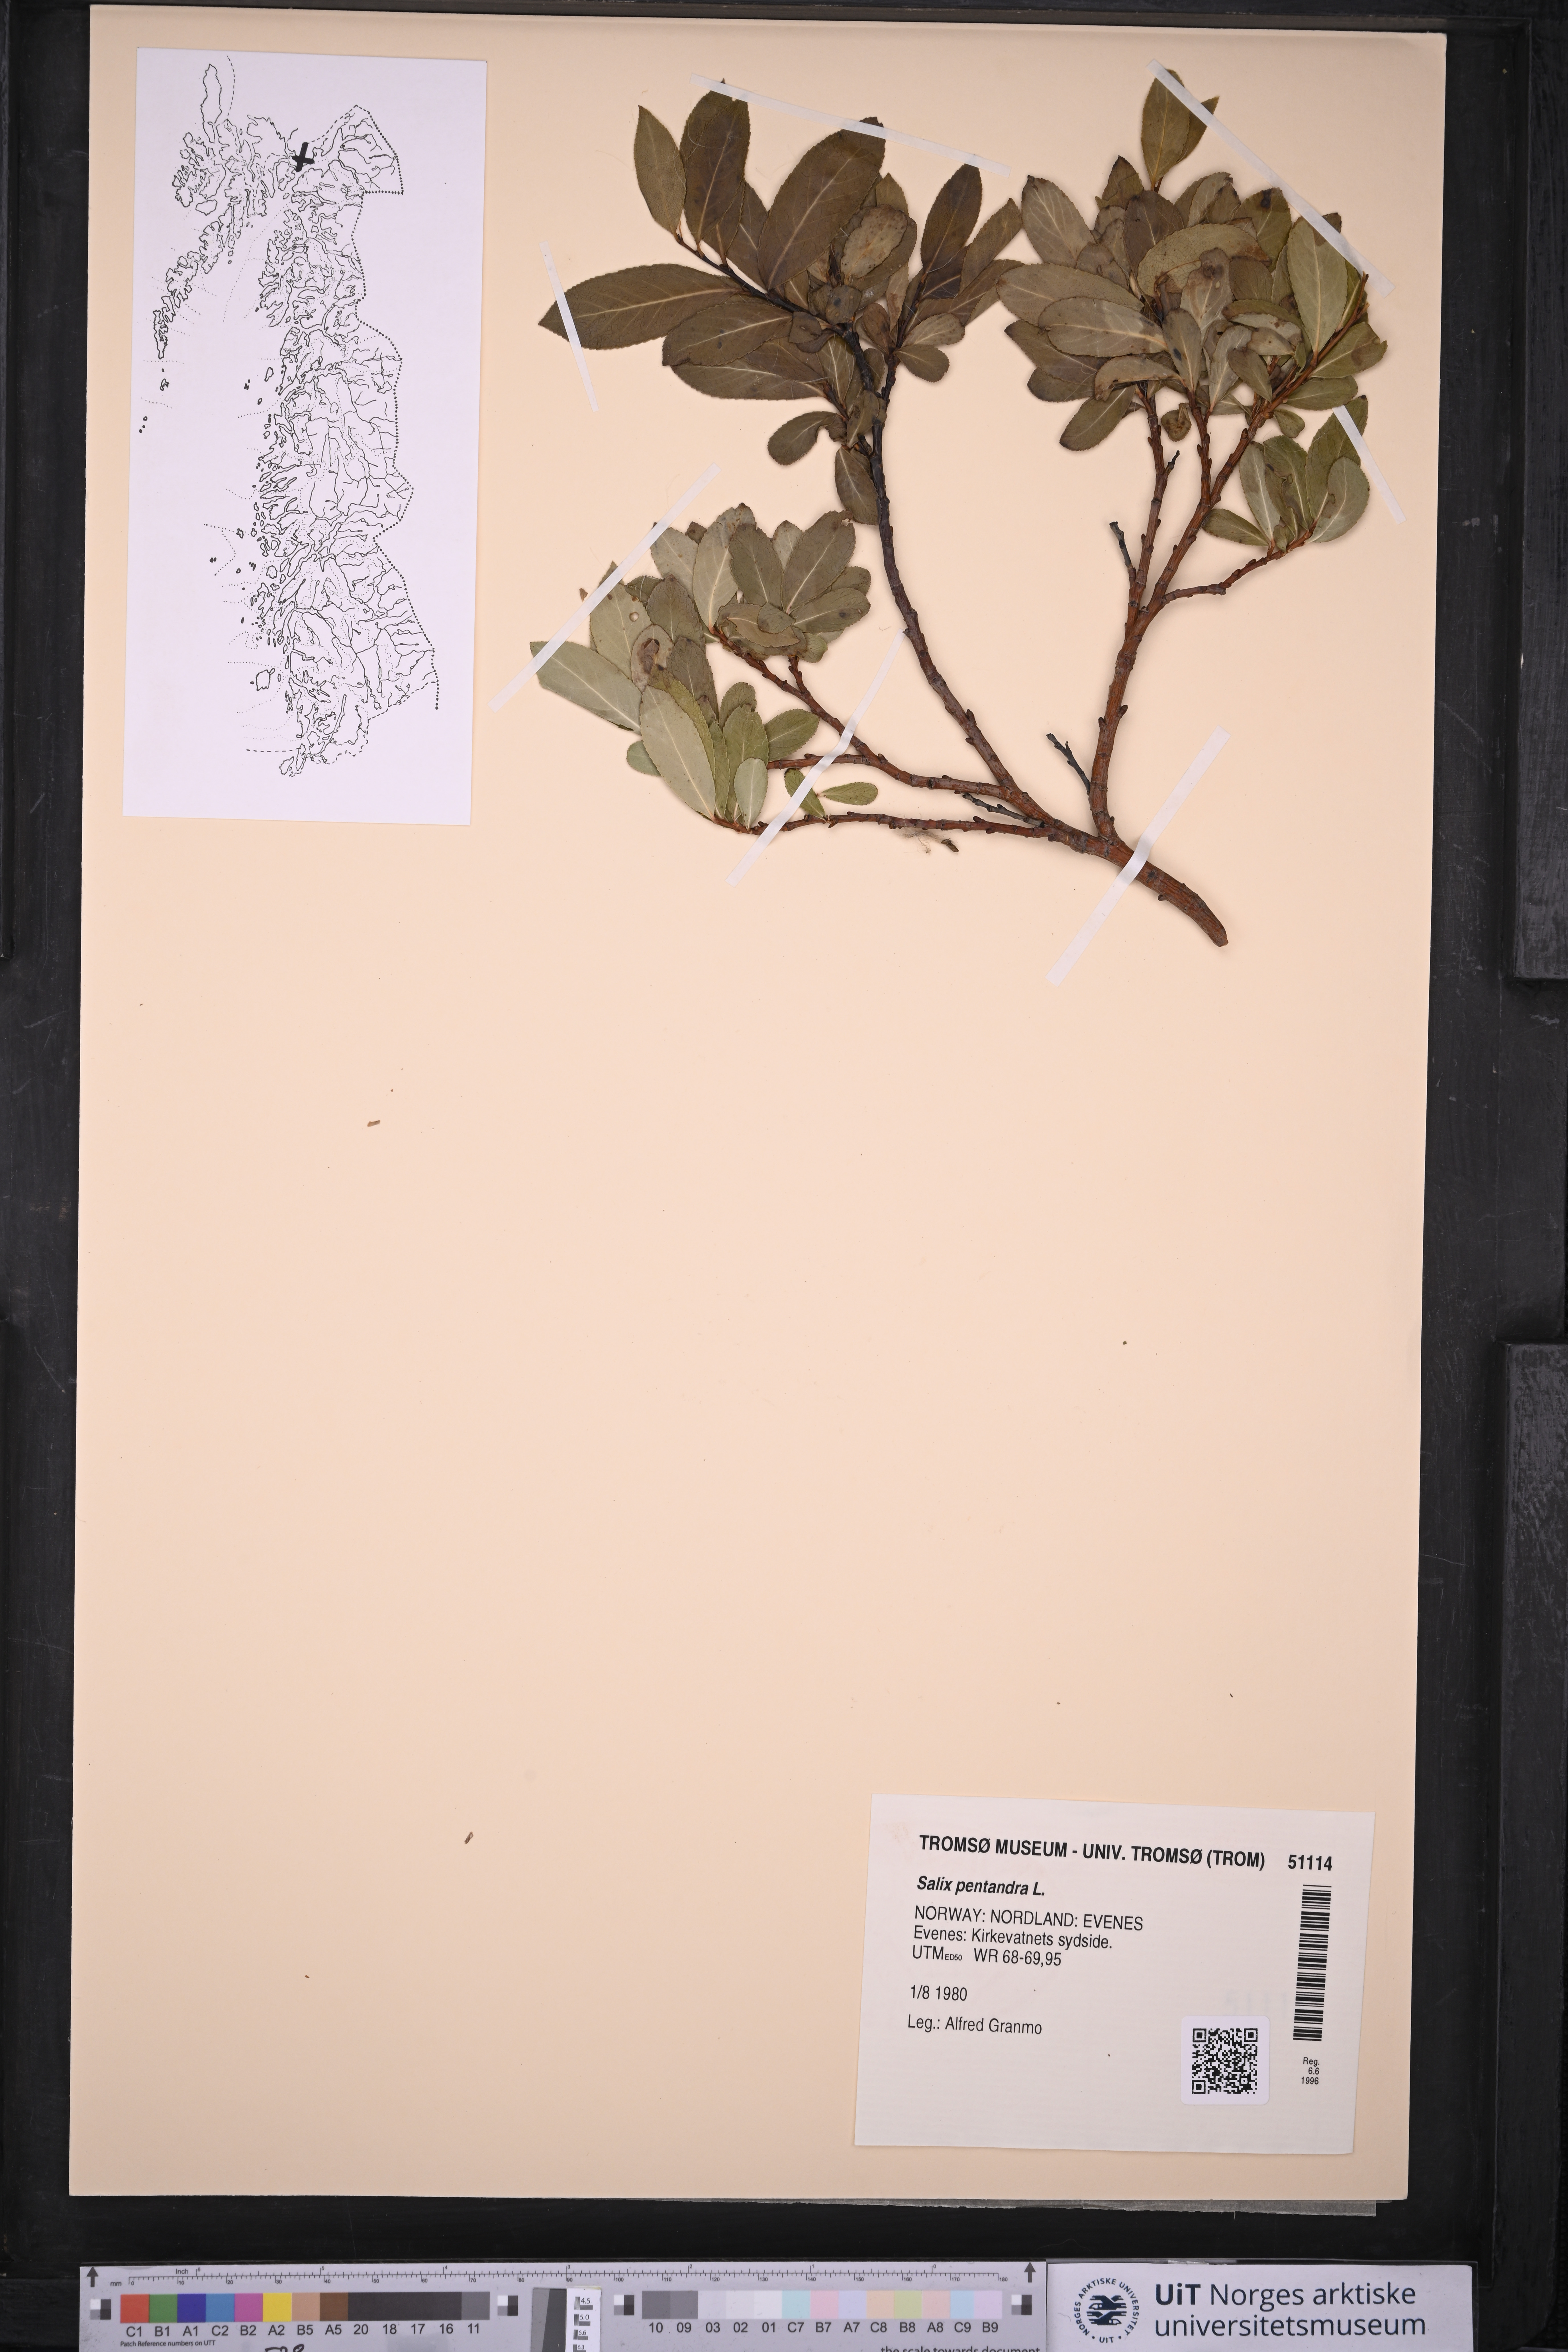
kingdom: Plantae
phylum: Tracheophyta
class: Magnoliopsida
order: Malpighiales
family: Salicaceae
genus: Salix
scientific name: Salix pentandra
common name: Bay willow
